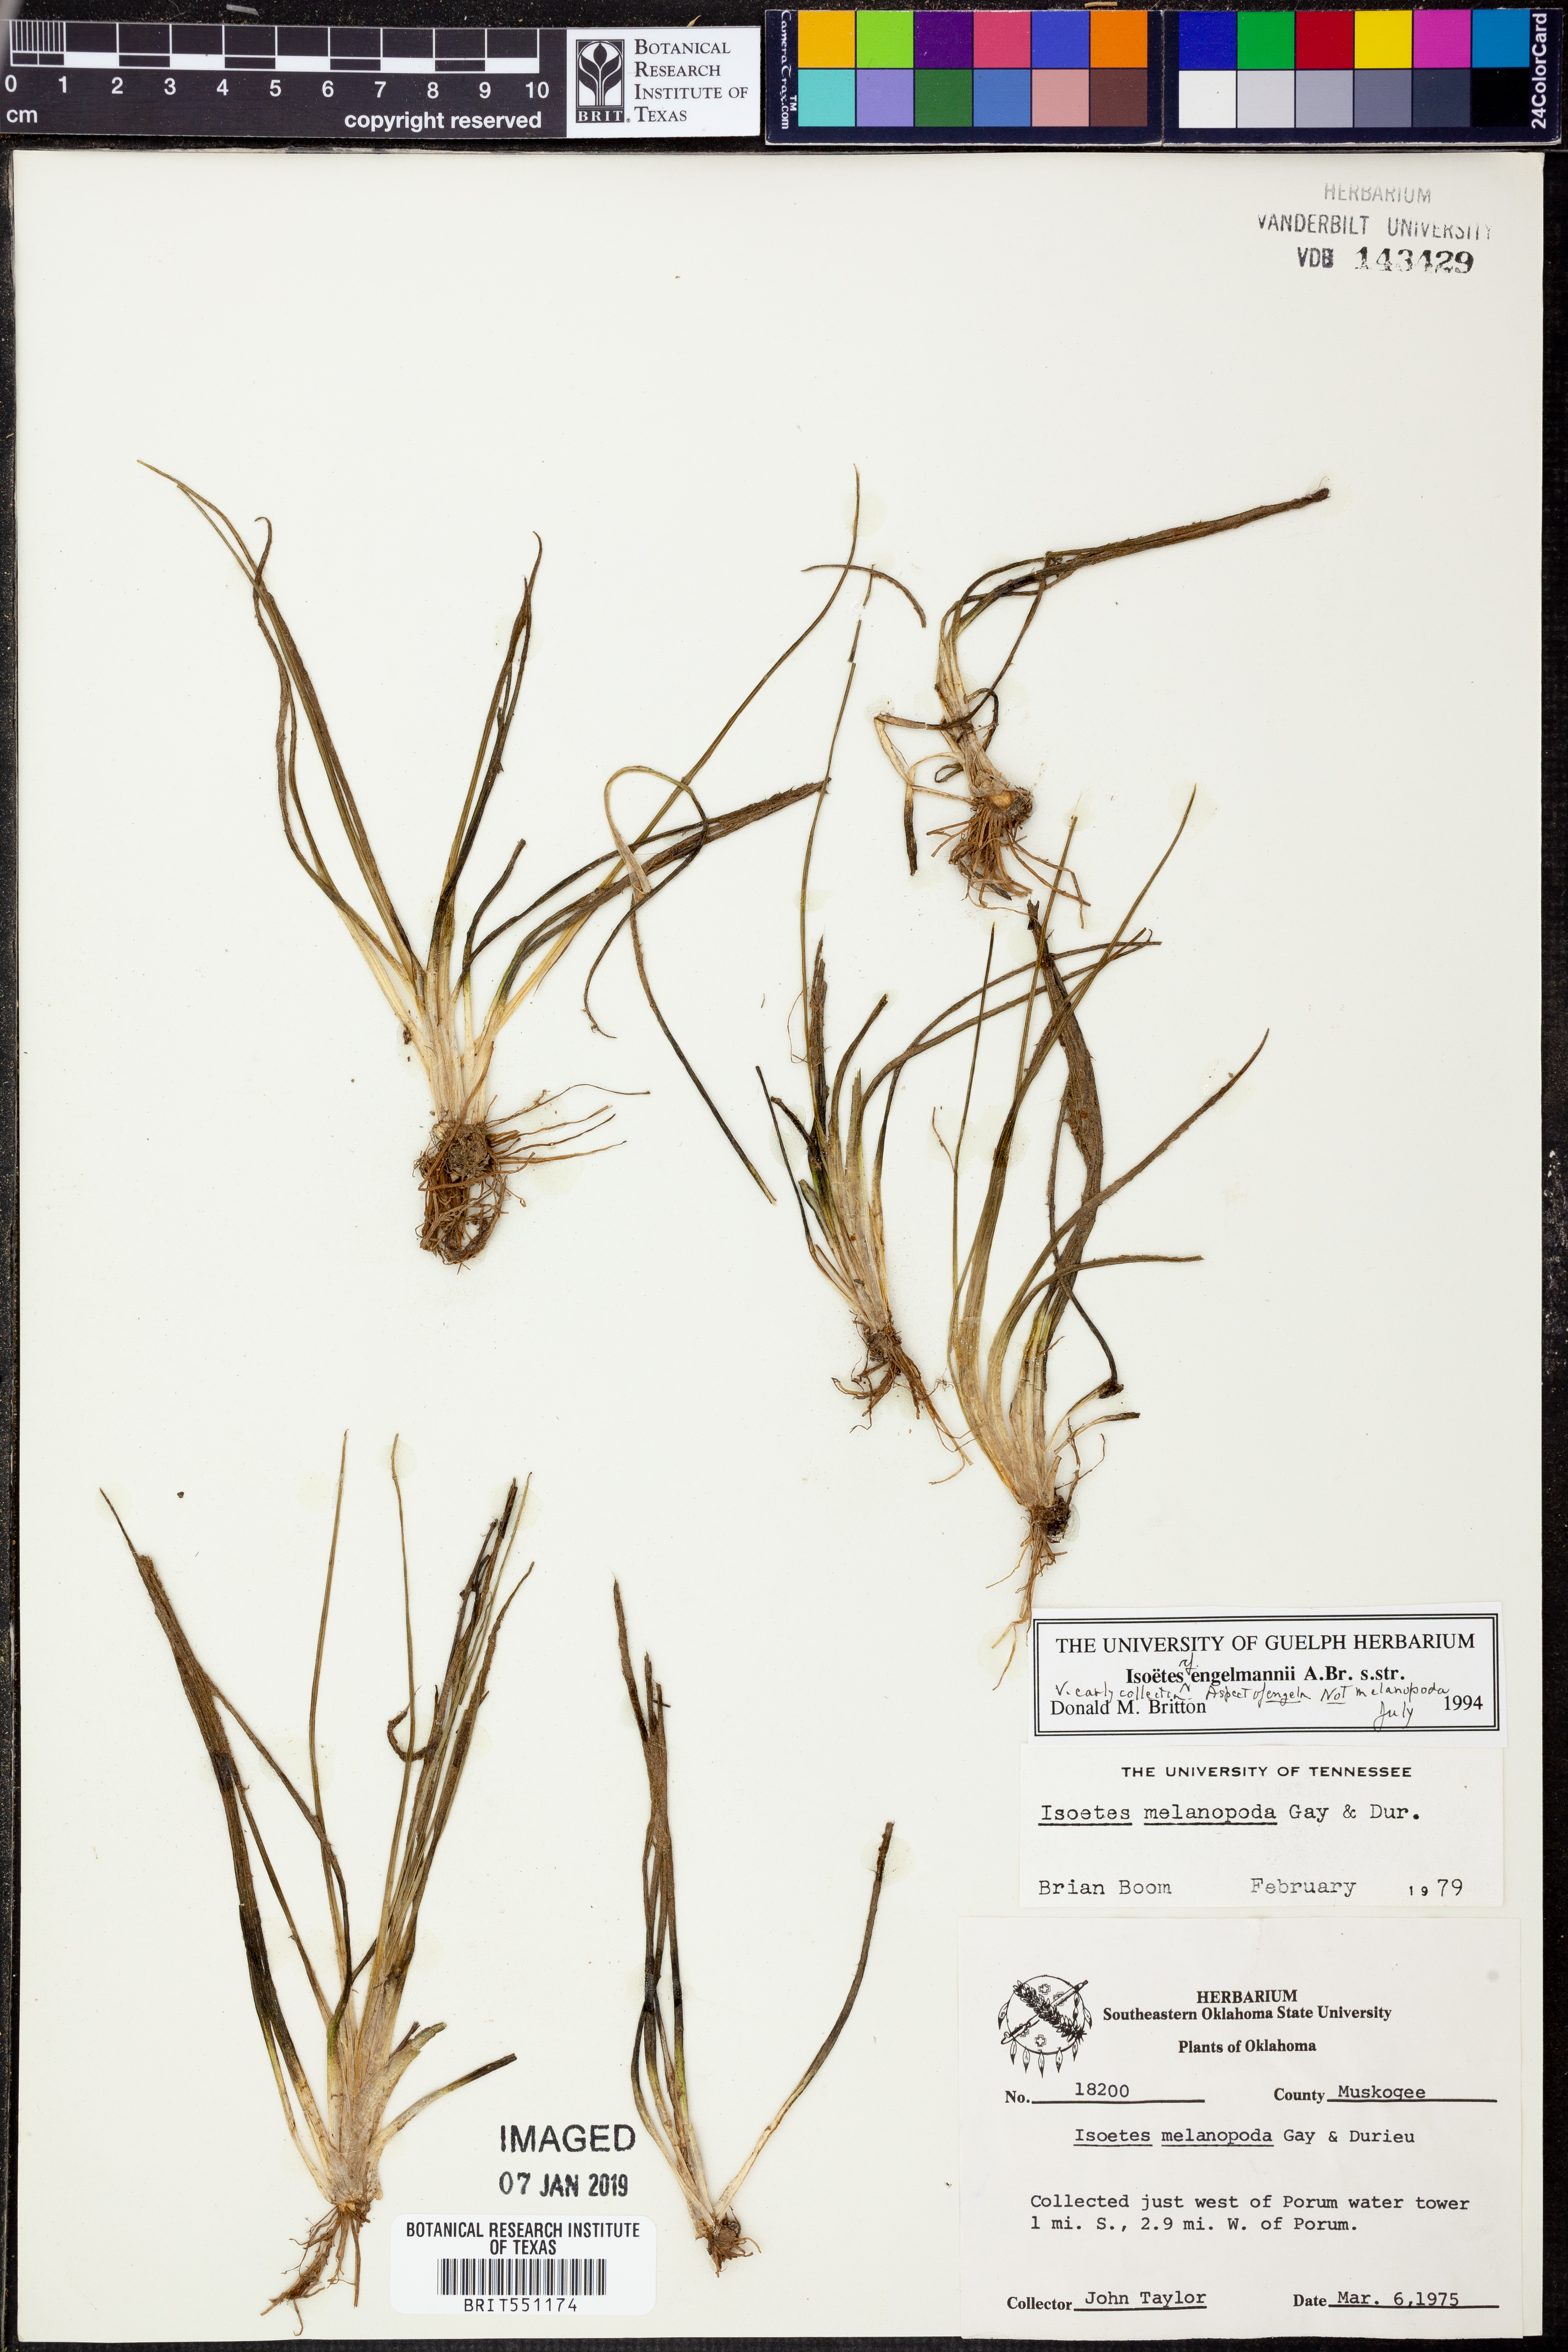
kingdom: Plantae
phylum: Tracheophyta
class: Lycopodiopsida
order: Isoetales
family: Isoetaceae
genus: Isoetes
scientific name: Isoetes engelmannii
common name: Engelmann's quillwort
